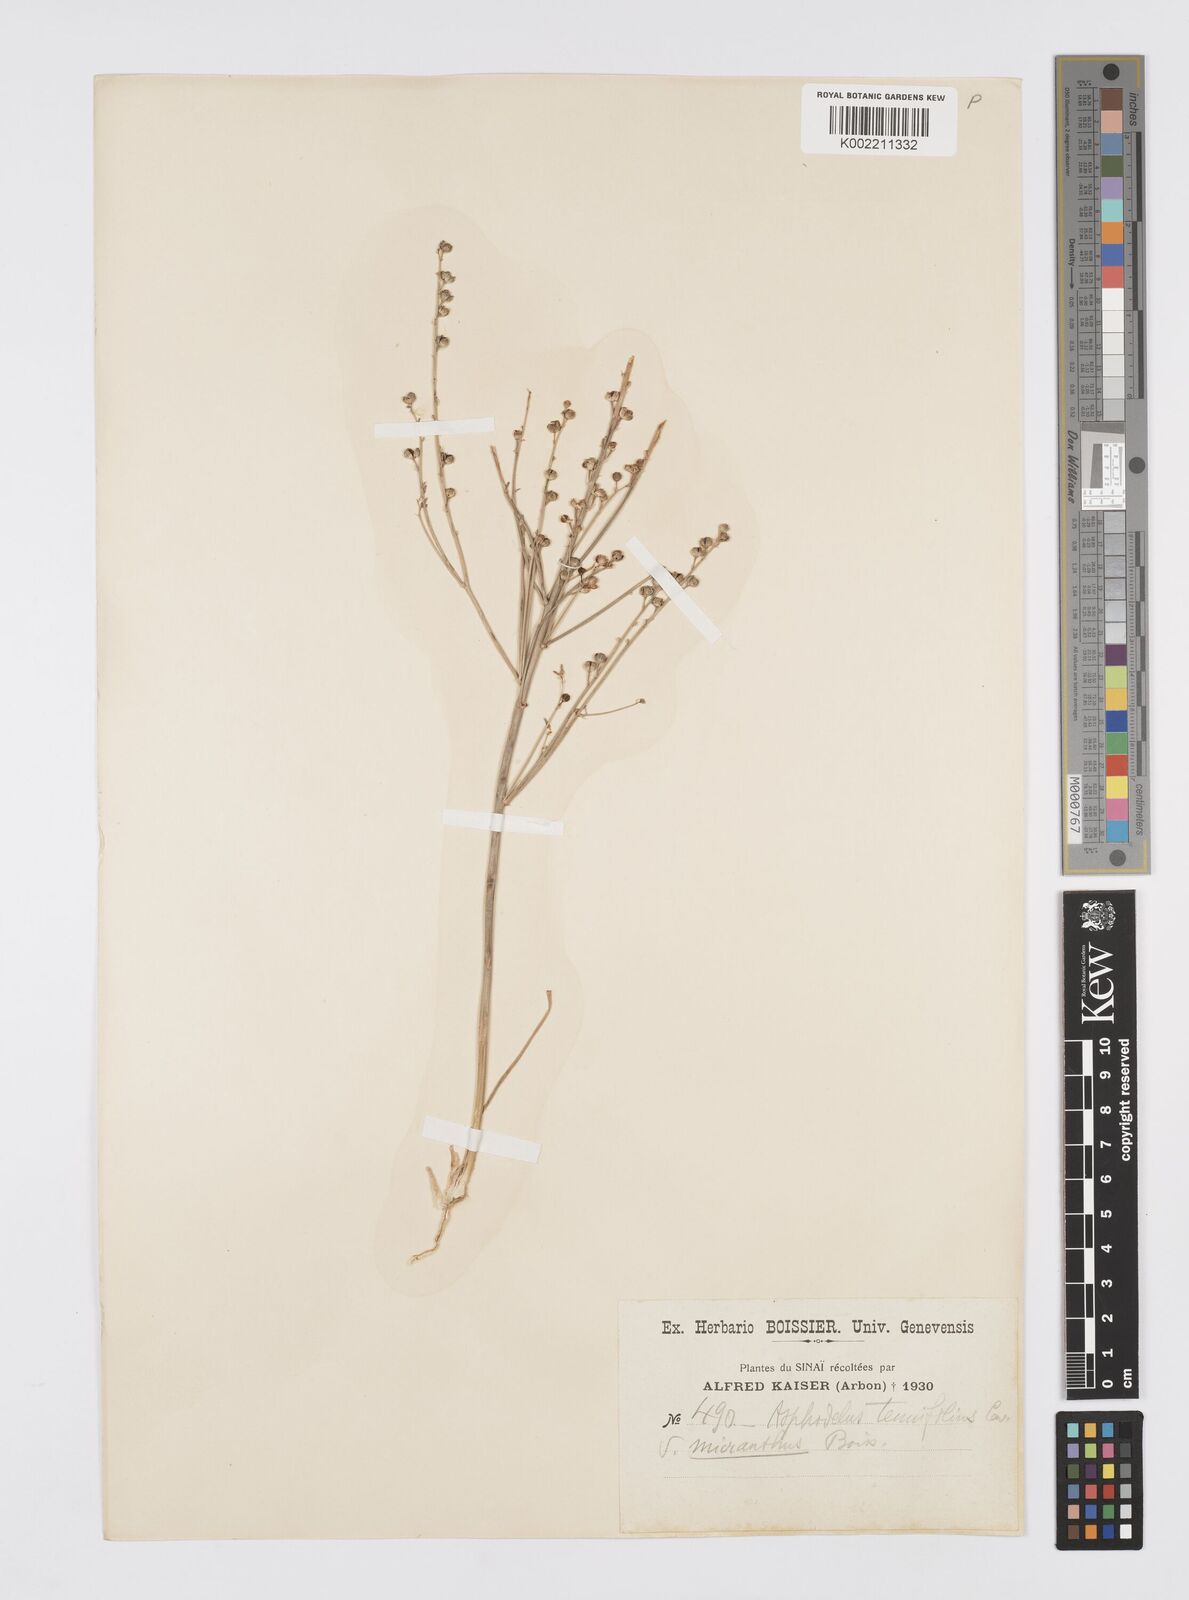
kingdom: Plantae
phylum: Tracheophyta
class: Liliopsida
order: Asparagales
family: Asphodelaceae
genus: Asphodelus
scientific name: Asphodelus tenuifolius
